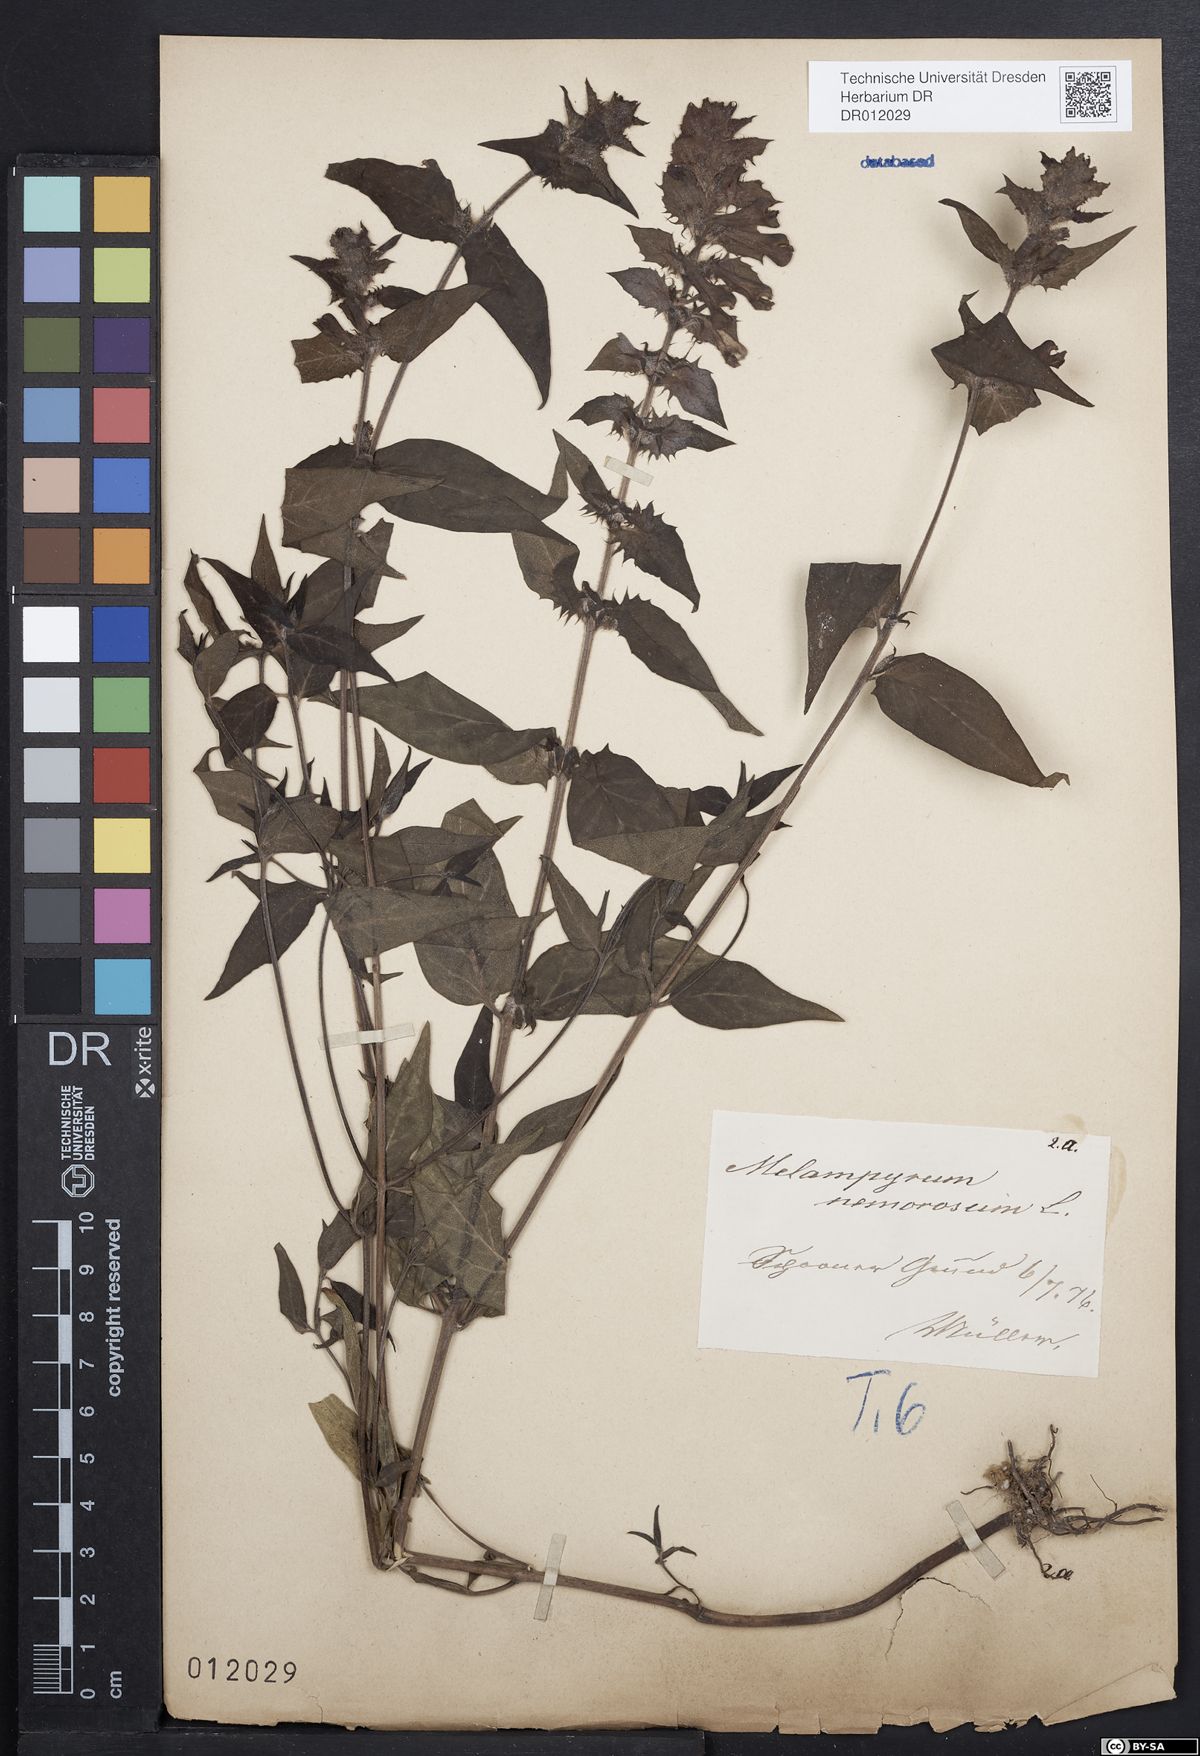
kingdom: Plantae
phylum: Tracheophyta
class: Magnoliopsida
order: Lamiales
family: Orobanchaceae
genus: Melampyrum
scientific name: Melampyrum nemorosum
